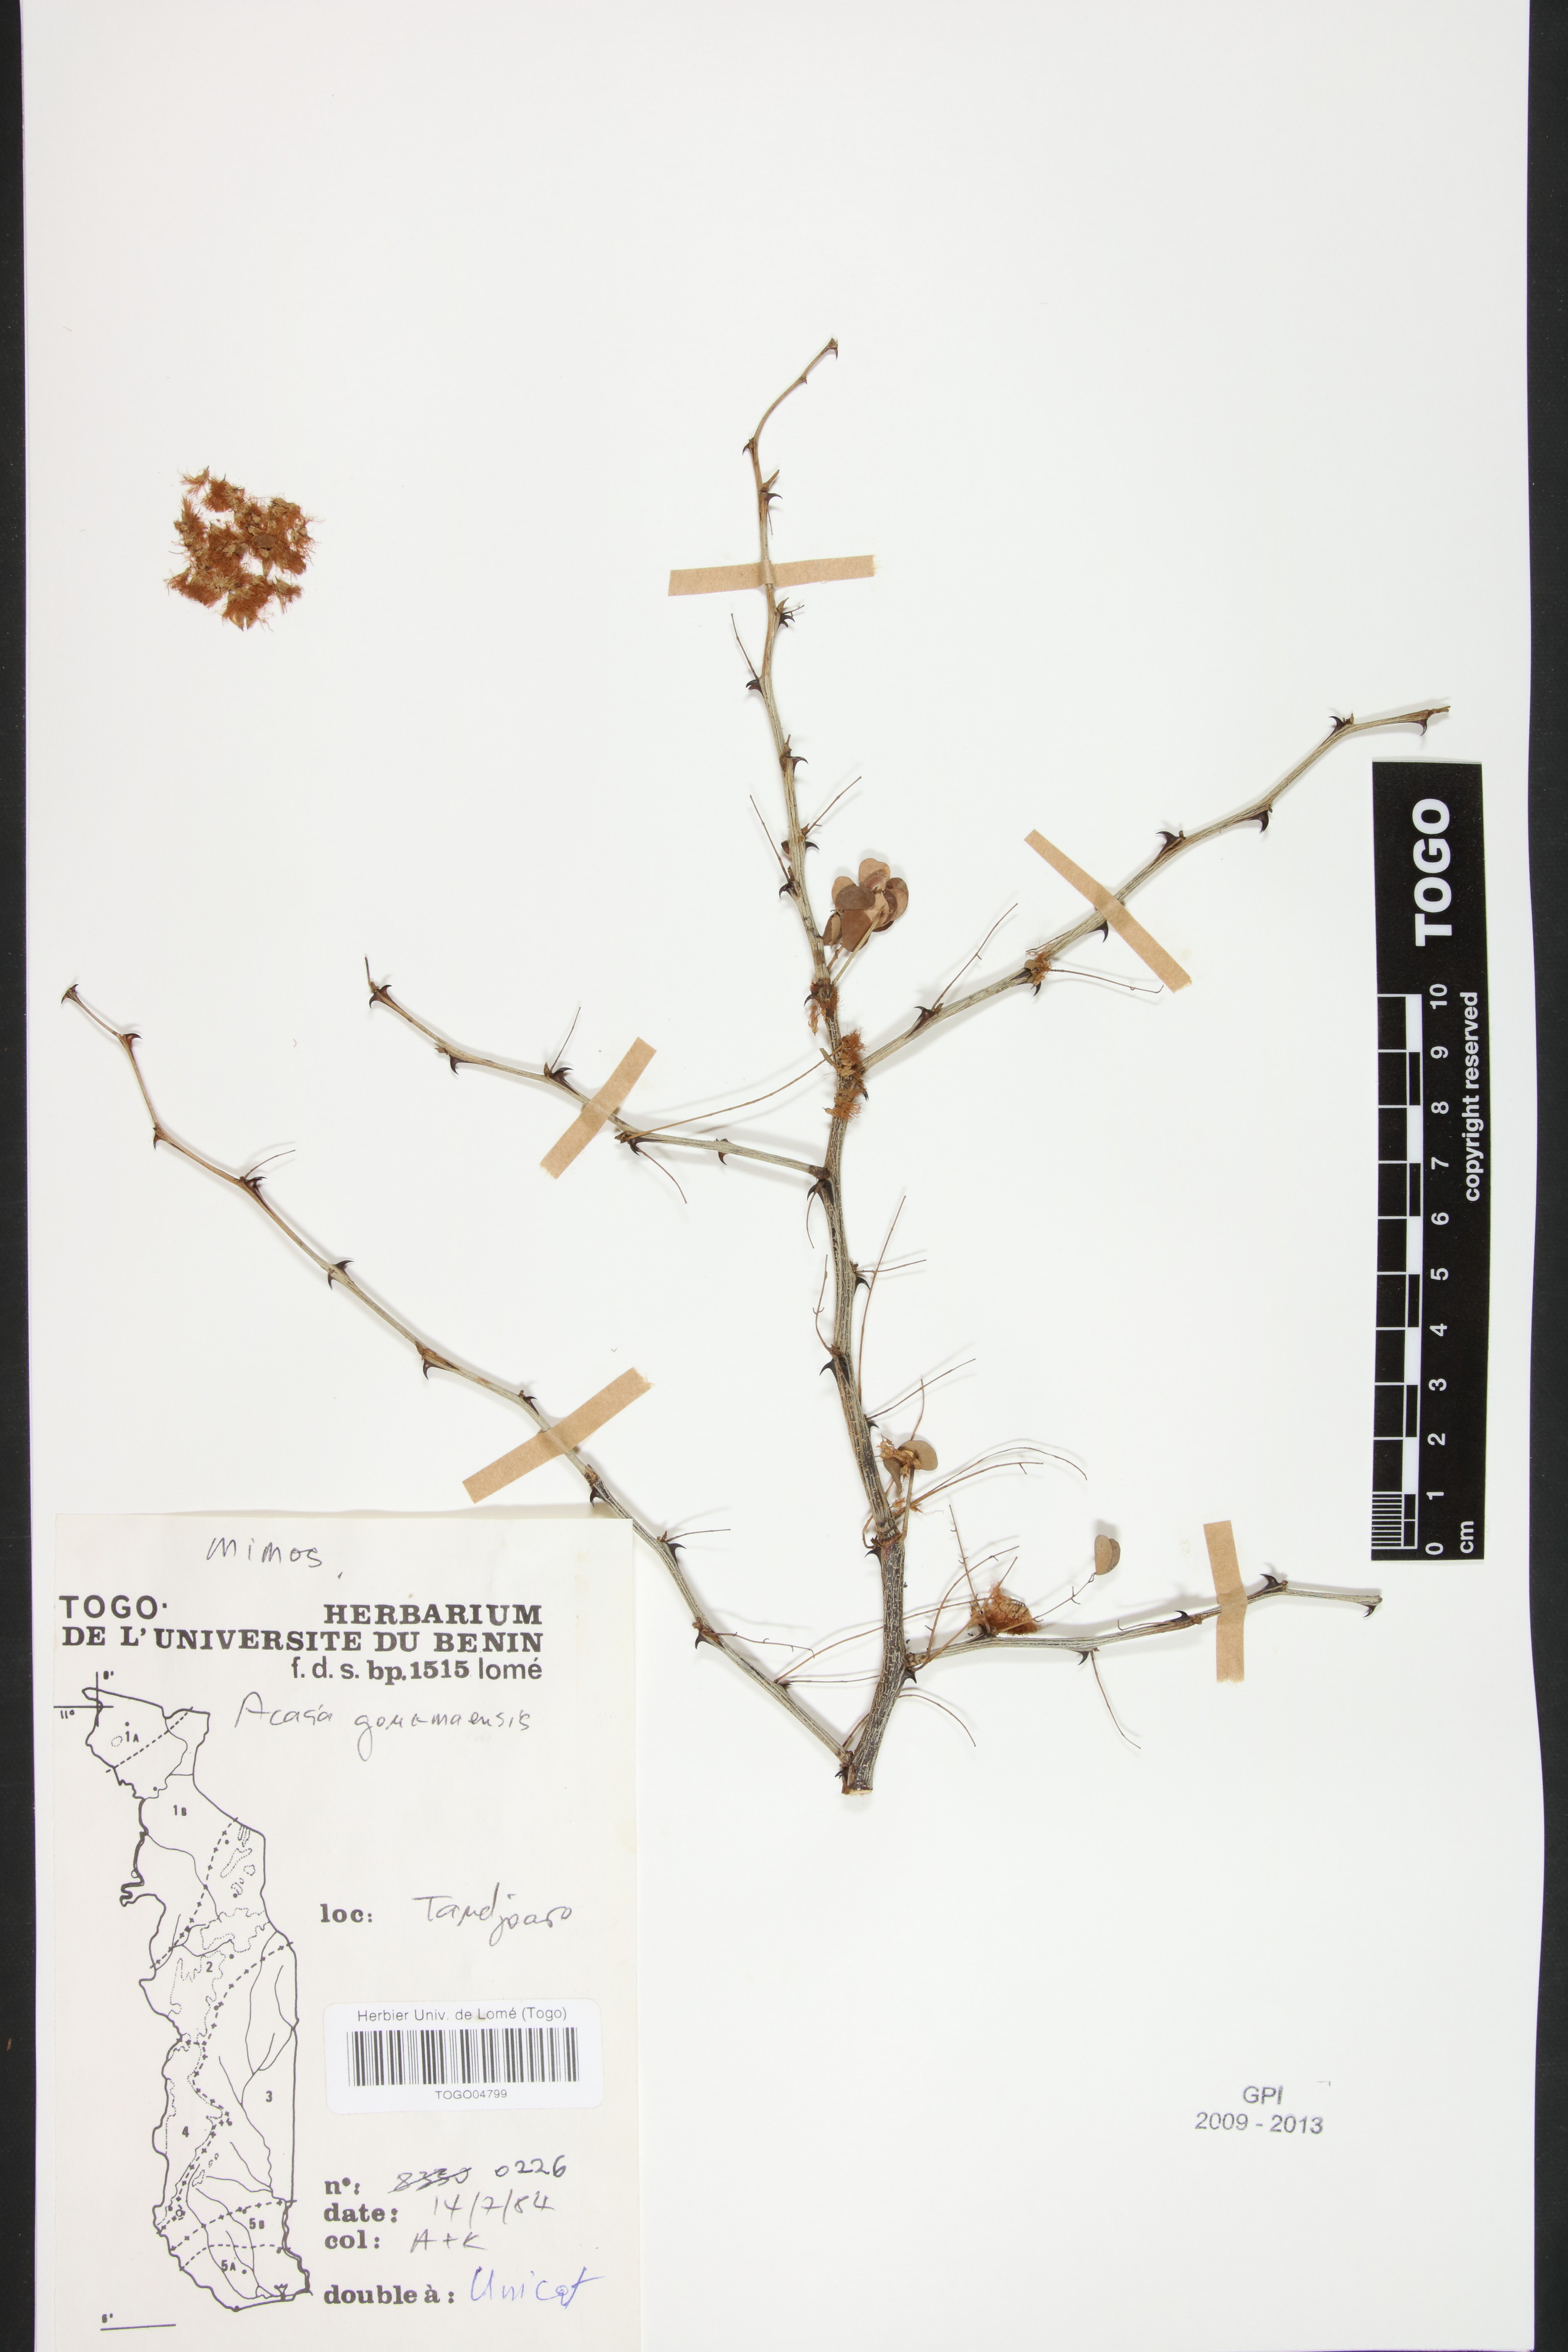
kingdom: Plantae
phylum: Tracheophyta
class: Magnoliopsida
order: Fabales
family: Fabaceae
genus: Senegalia
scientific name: Senegalia gourmaensis
